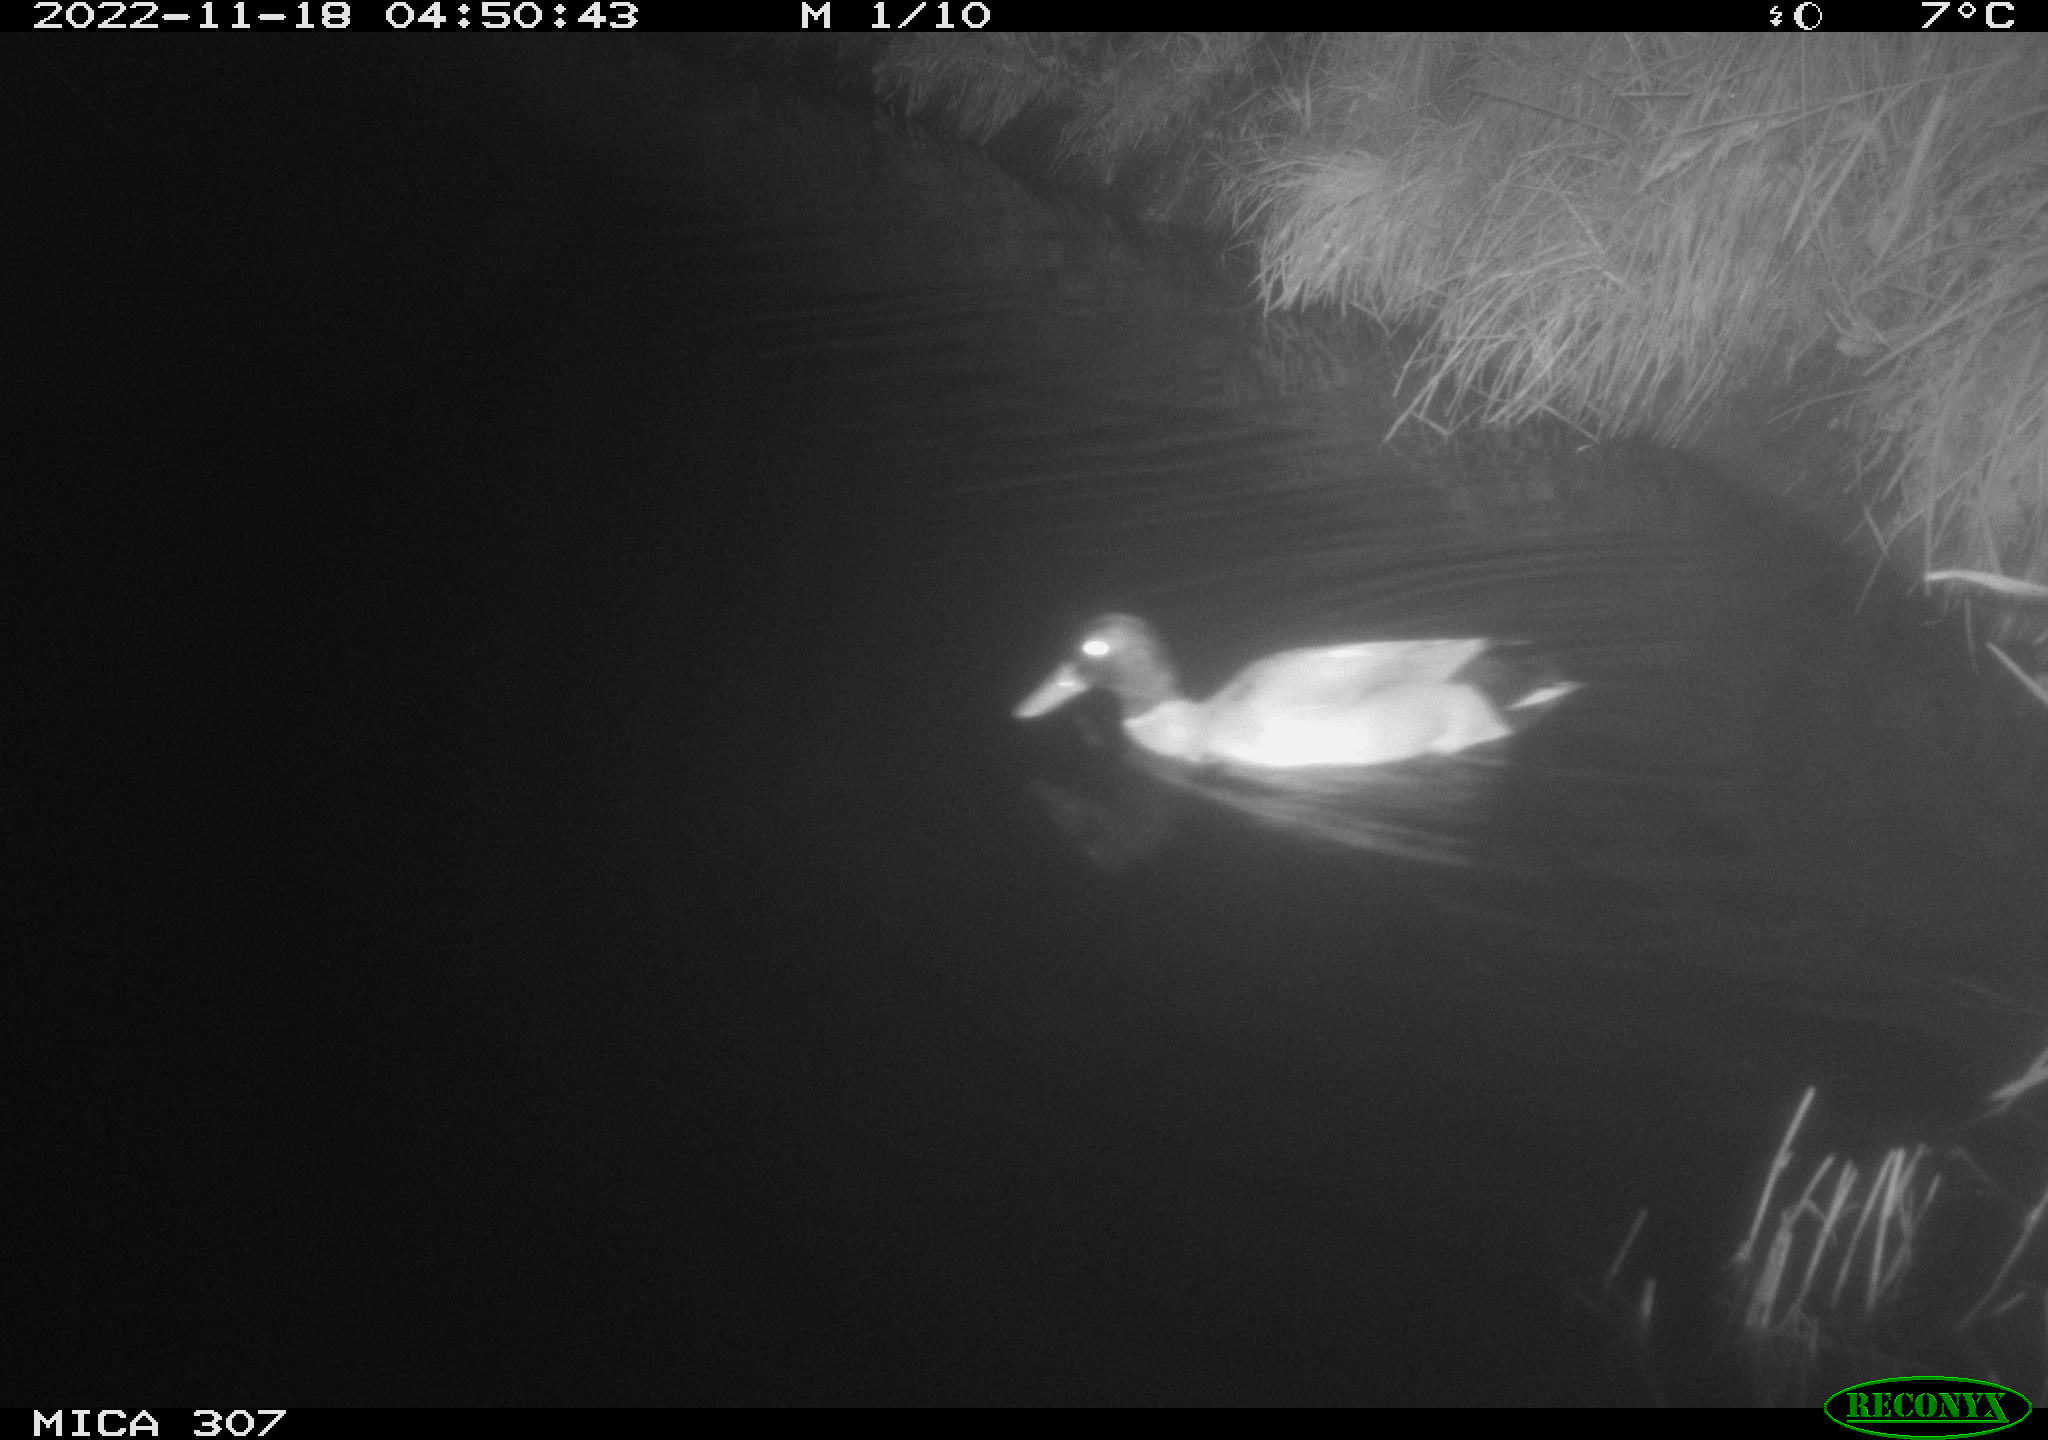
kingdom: Animalia
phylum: Chordata
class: Aves
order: Anseriformes
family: Anatidae
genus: Anas
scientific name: Anas
